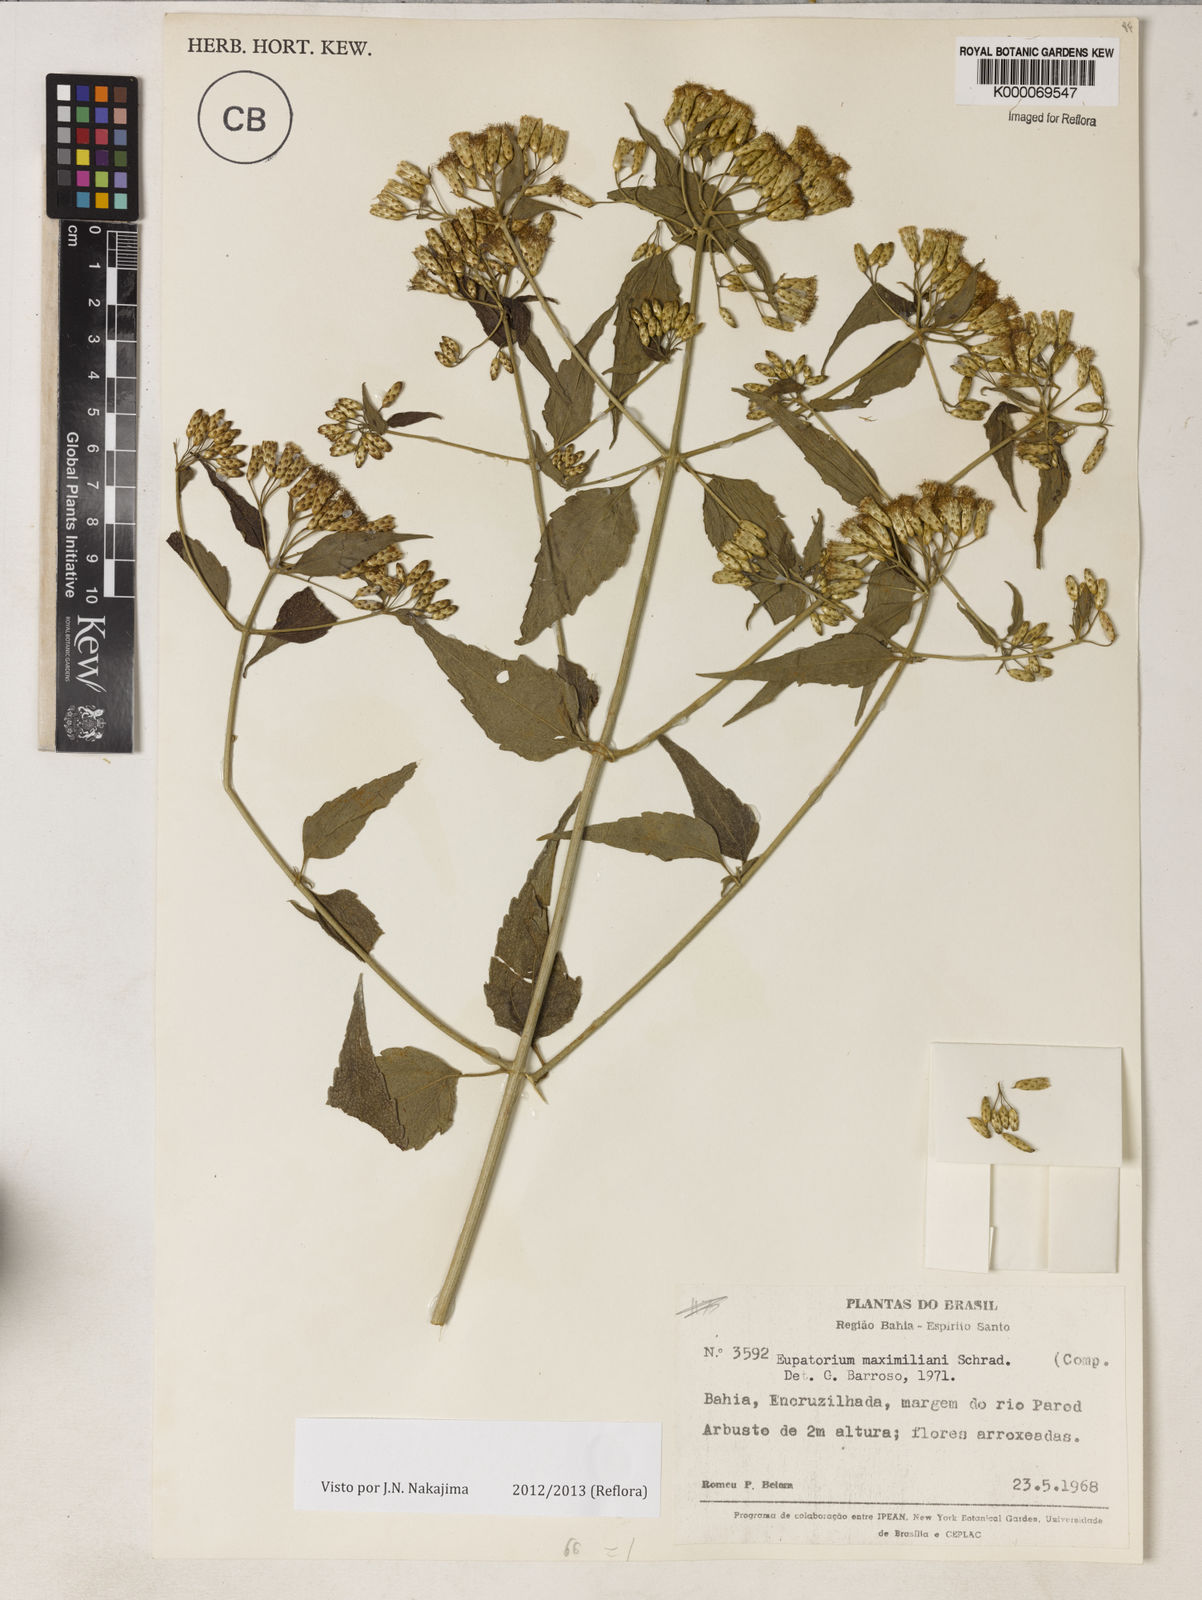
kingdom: Plantae
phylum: Tracheophyta
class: Magnoliopsida
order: Asterales
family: Asteraceae
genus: Chromolaena
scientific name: Chromolaena maximiliani
